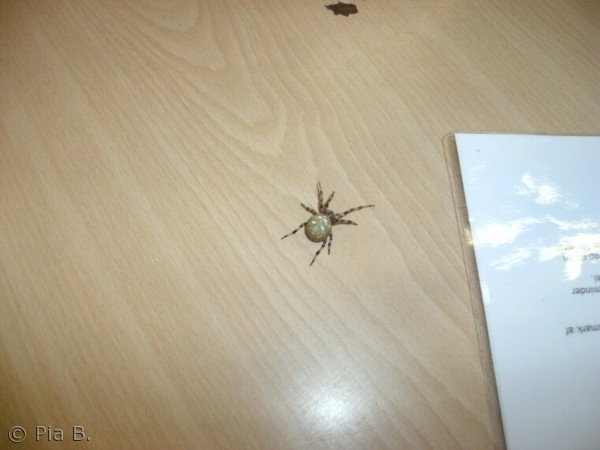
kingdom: Animalia
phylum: Arthropoda
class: Arachnida
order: Araneae
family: Araneidae
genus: Araneus
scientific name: Araneus quadratus
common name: Kvadratedderkop
